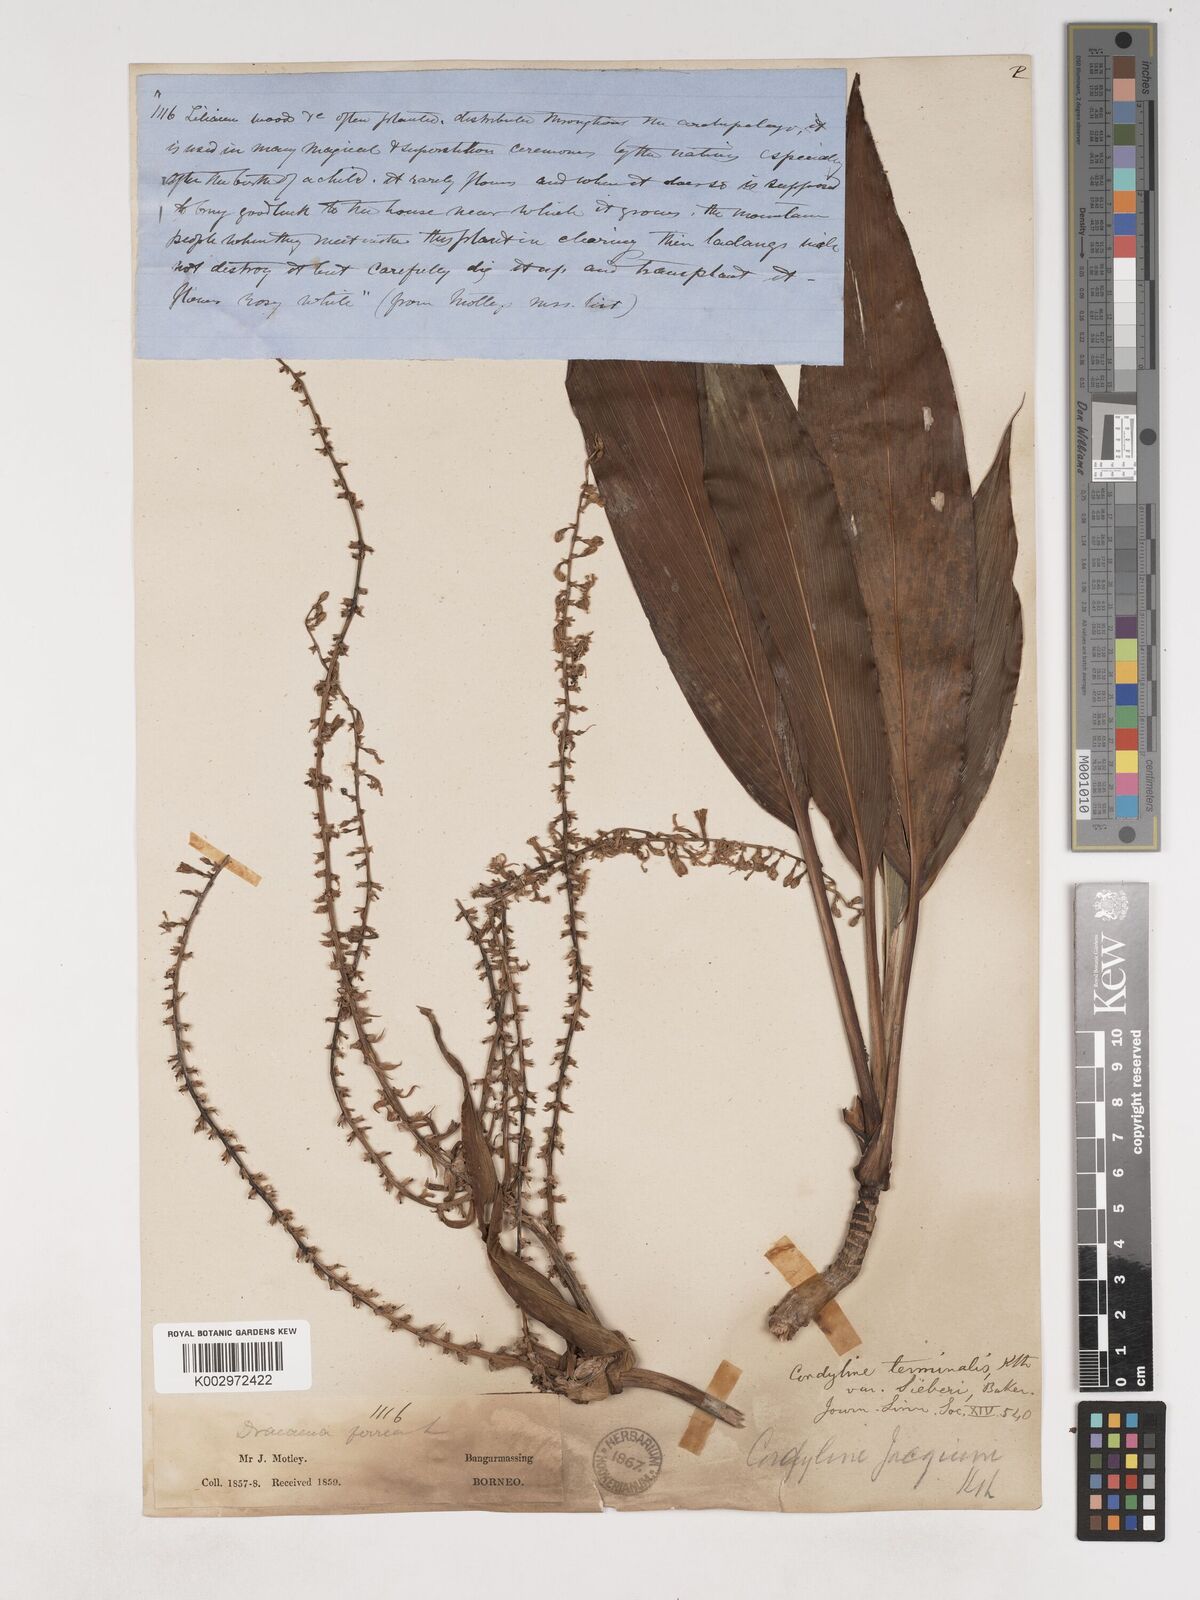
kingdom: Plantae
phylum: Tracheophyta
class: Liliopsida
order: Asparagales
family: Asparagaceae
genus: Cordyline
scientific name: Cordyline
